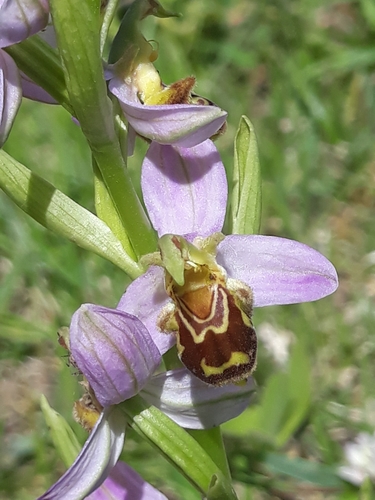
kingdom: Plantae
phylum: Tracheophyta
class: Liliopsida
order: Asparagales
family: Orchidaceae
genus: Ophrys
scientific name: Ophrys apifera
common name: Bee orchid
